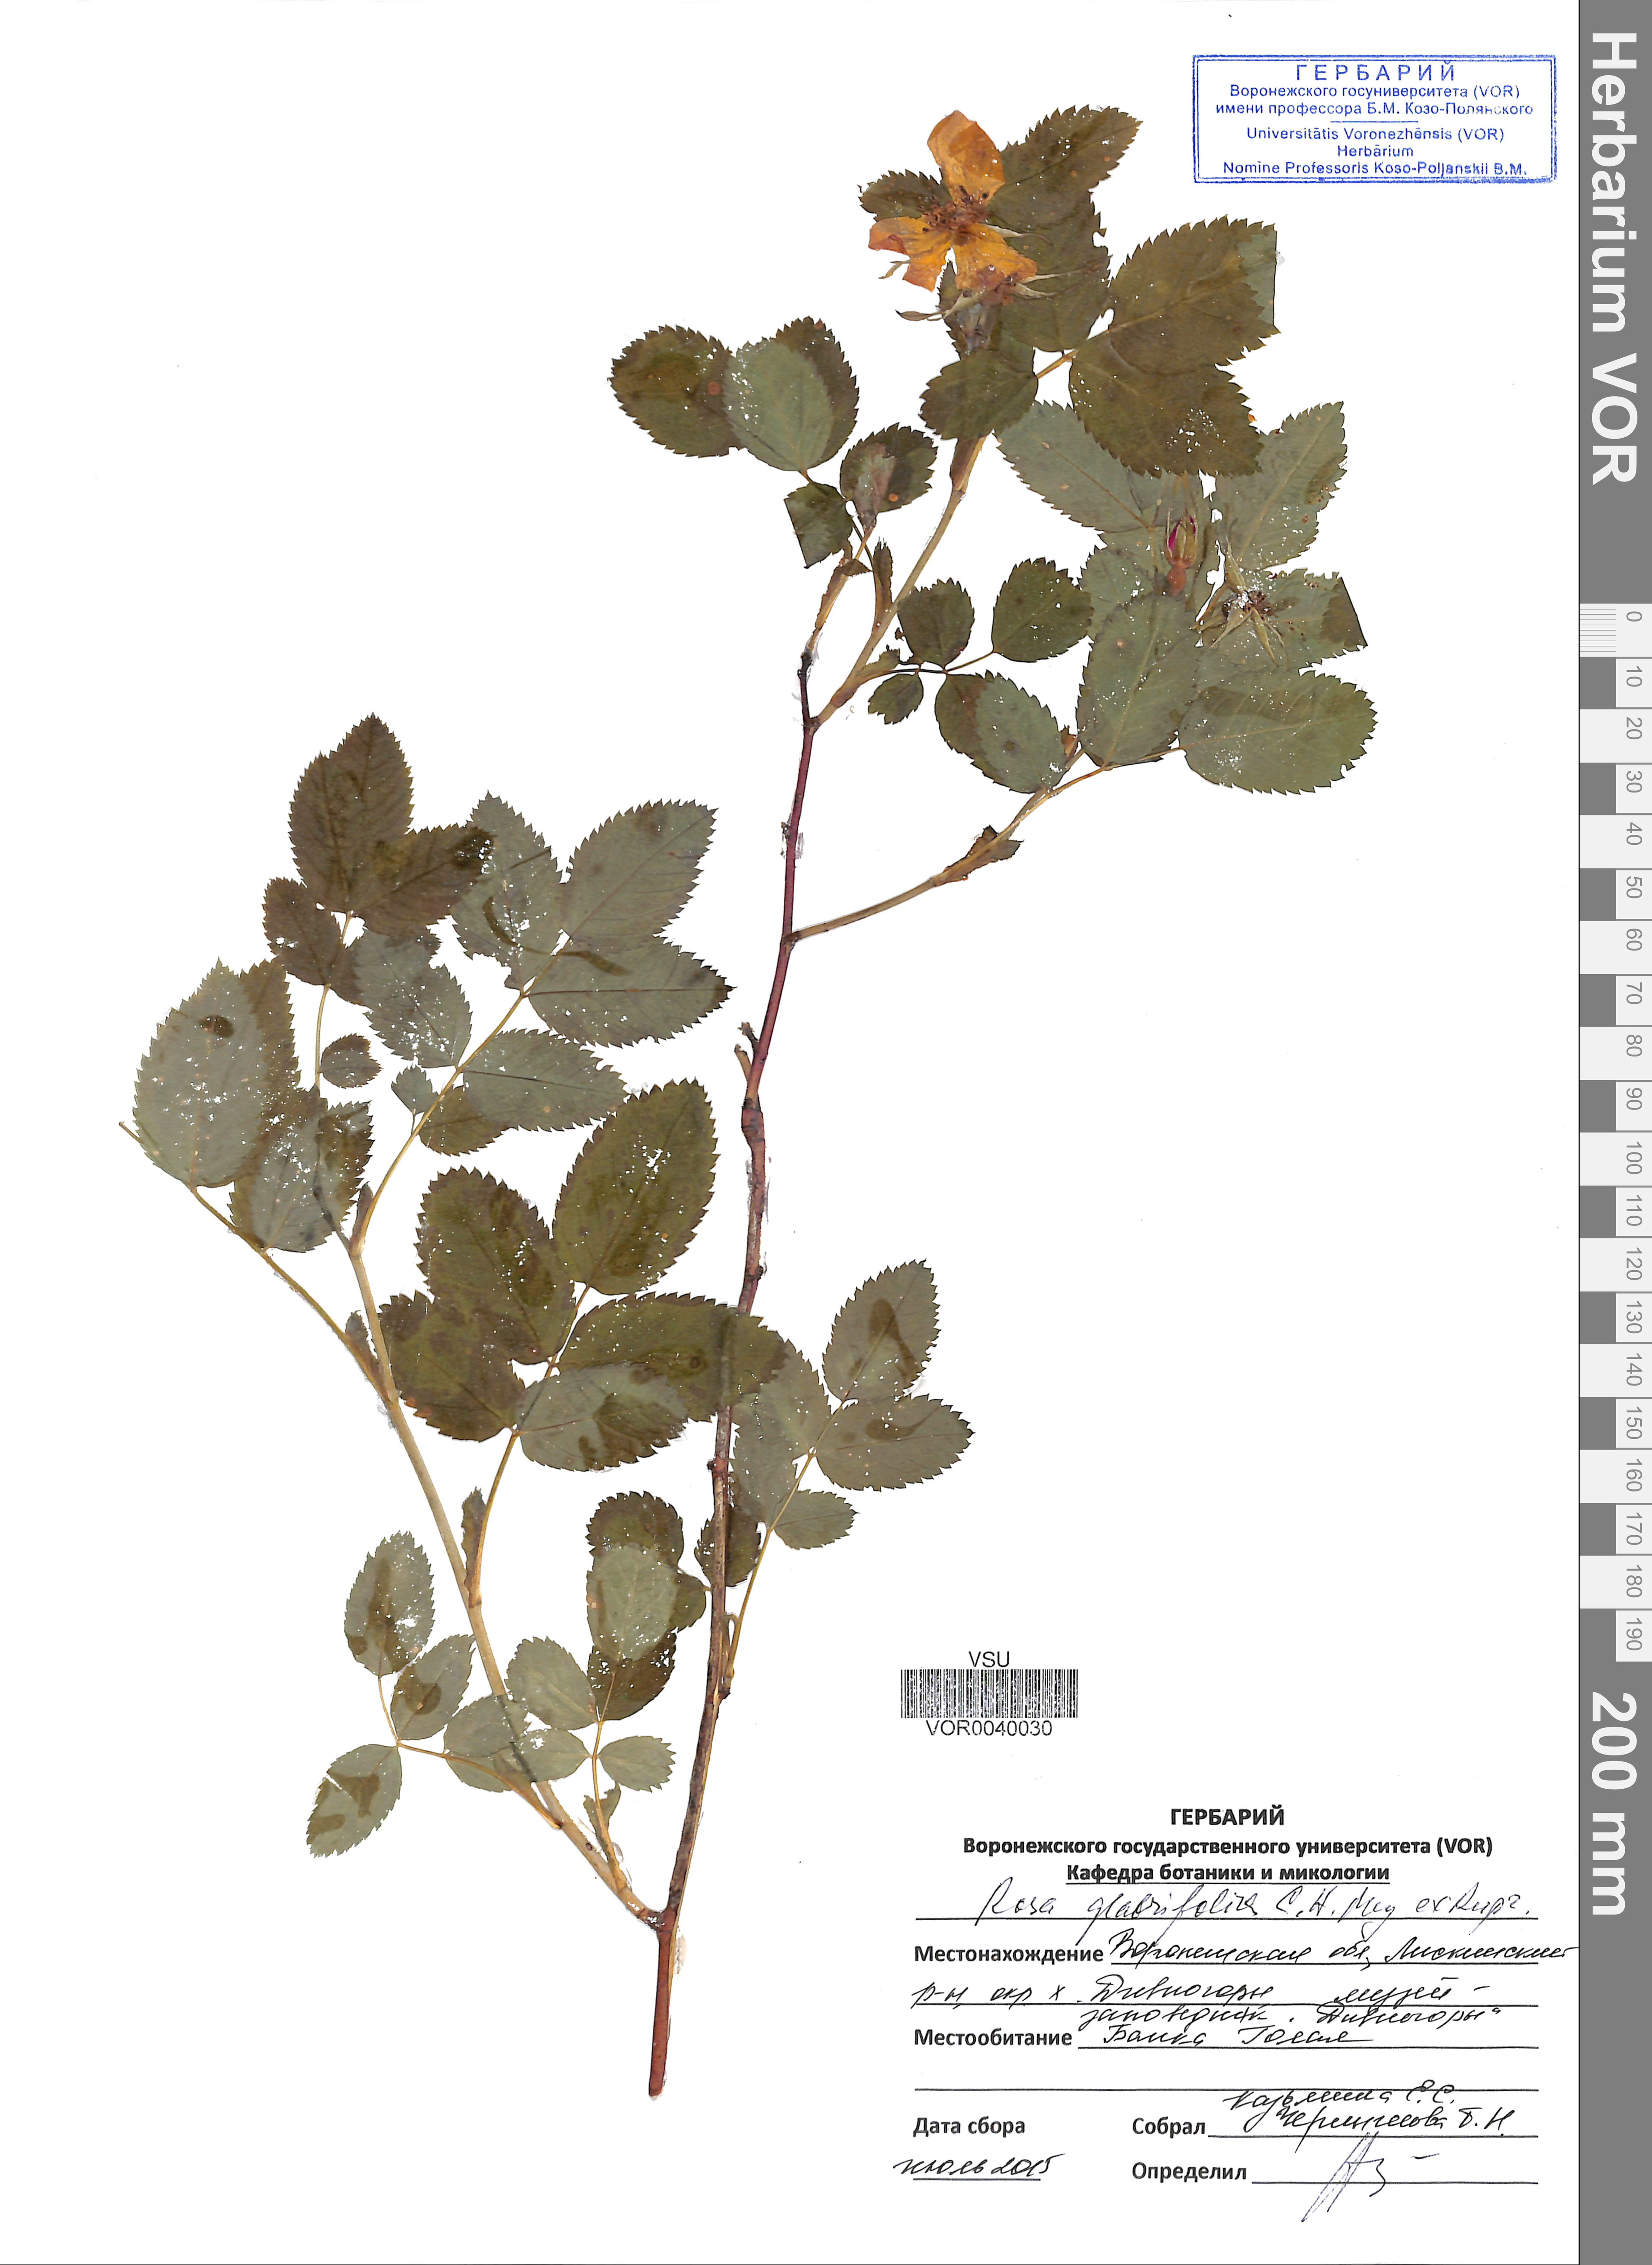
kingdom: Plantae
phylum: Tracheophyta
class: Magnoliopsida
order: Rosales
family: Rosaceae
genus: Rosa
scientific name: Rosa glabrifolia
